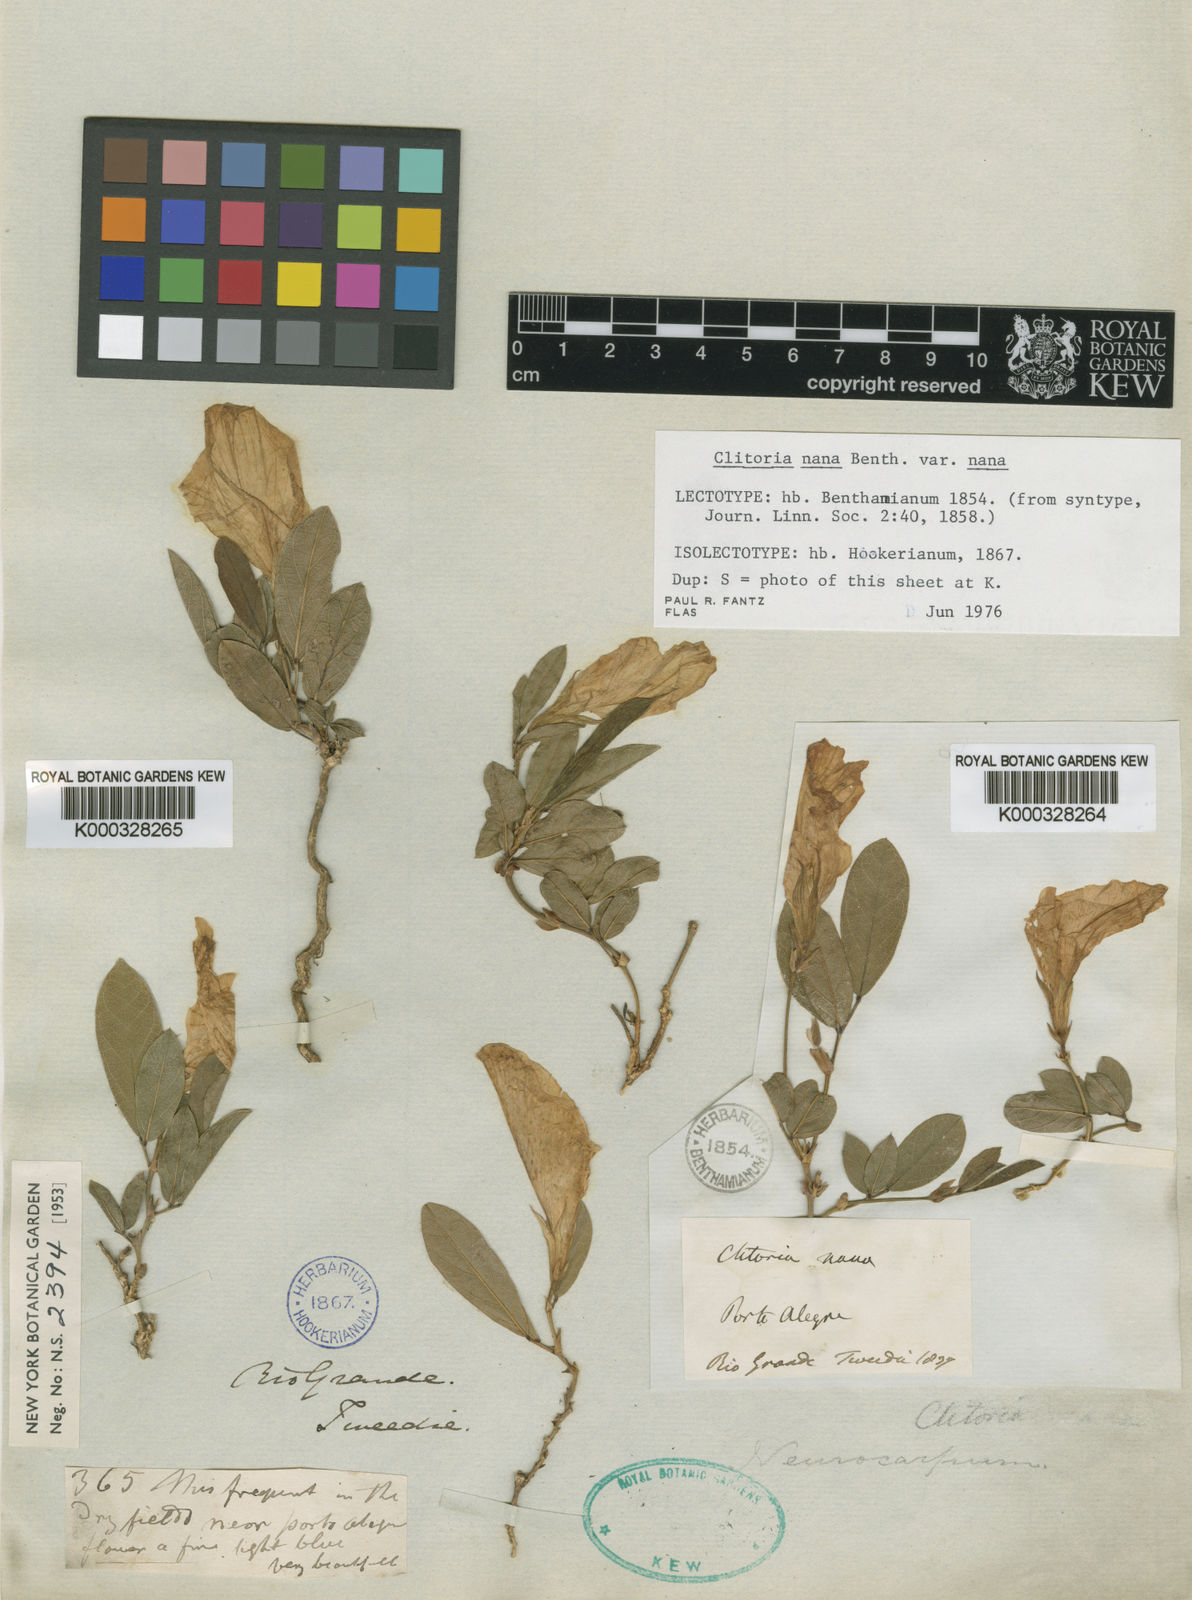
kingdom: Plantae
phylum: Tracheophyta
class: Magnoliopsida
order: Fabales
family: Fabaceae
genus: Clitoria
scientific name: Clitoria nana
